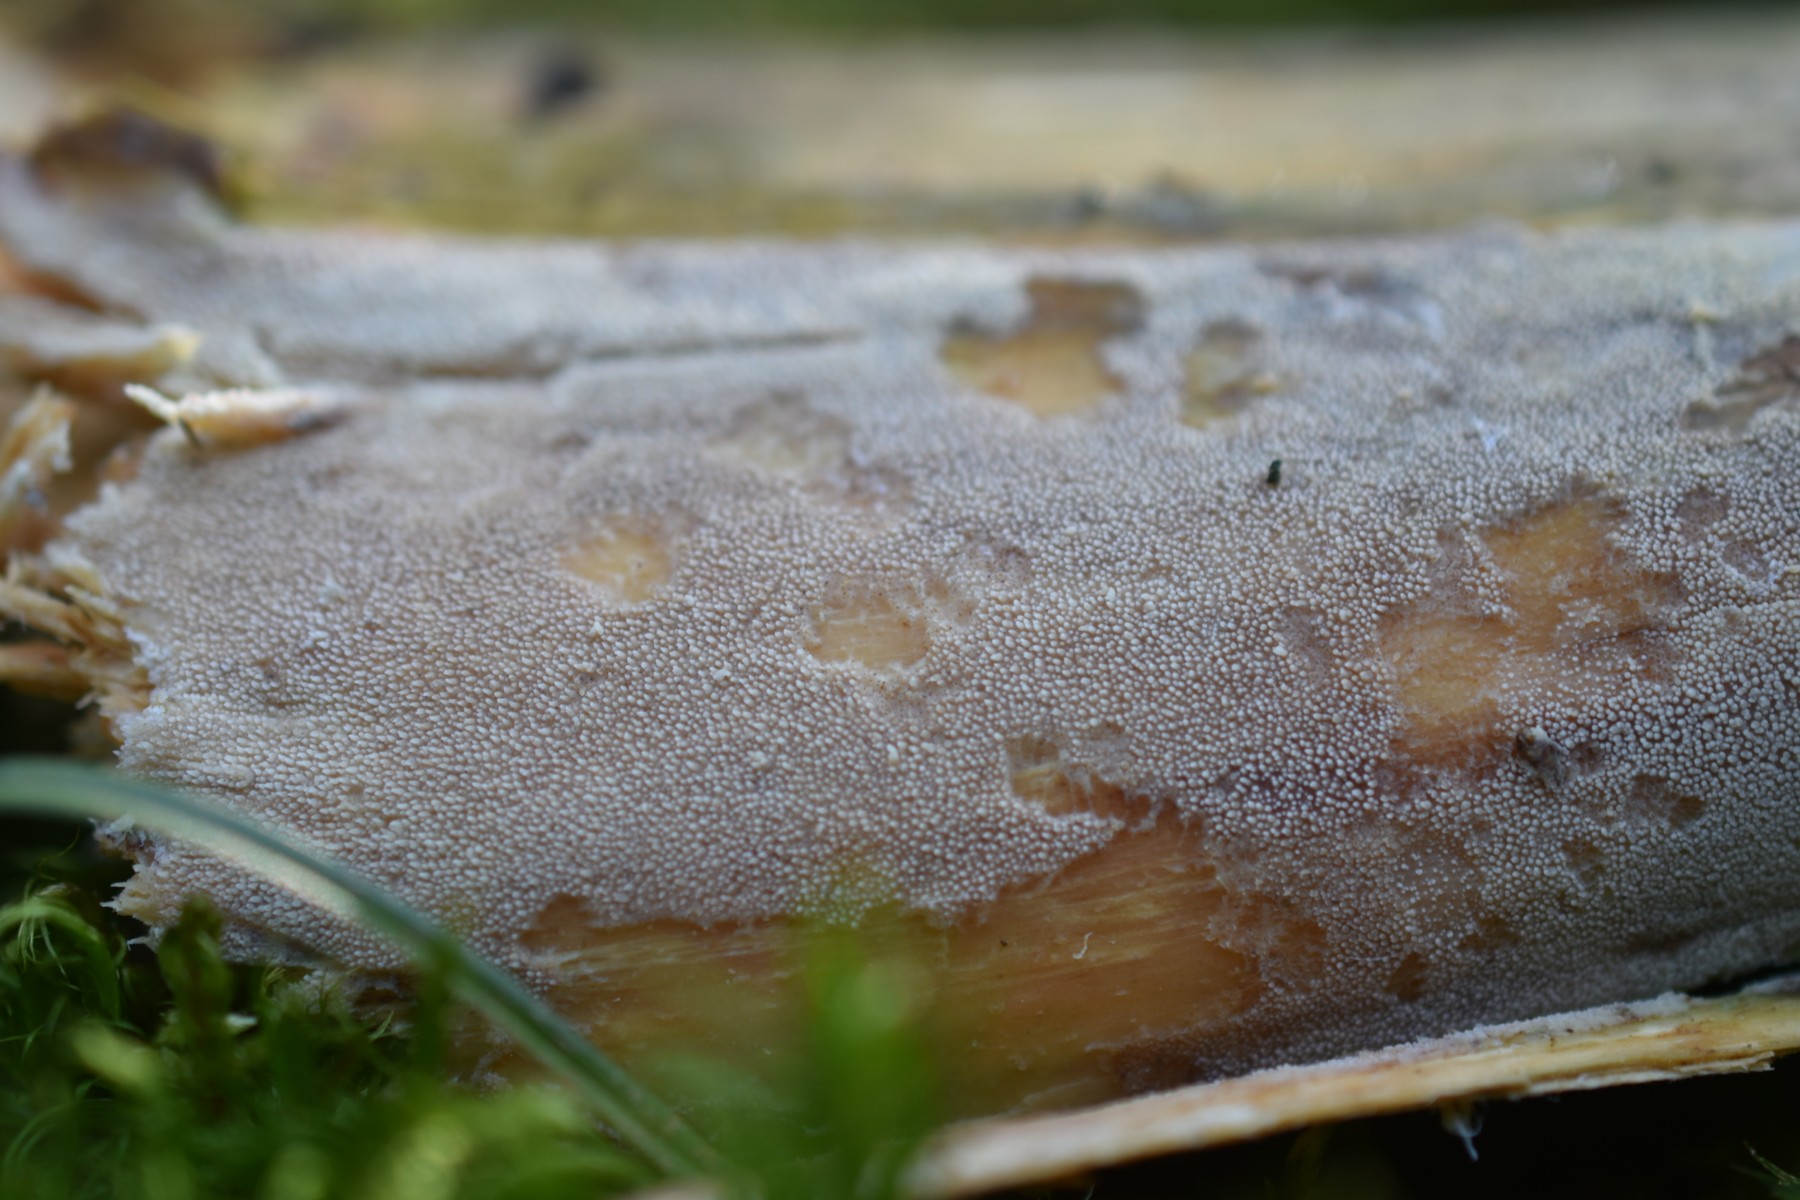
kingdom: Fungi
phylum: Basidiomycota
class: Agaricomycetes
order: Hymenochaetales
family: Rickenellaceae
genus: Resinicium
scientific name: Resinicium bicolor
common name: almindelig vokstand
